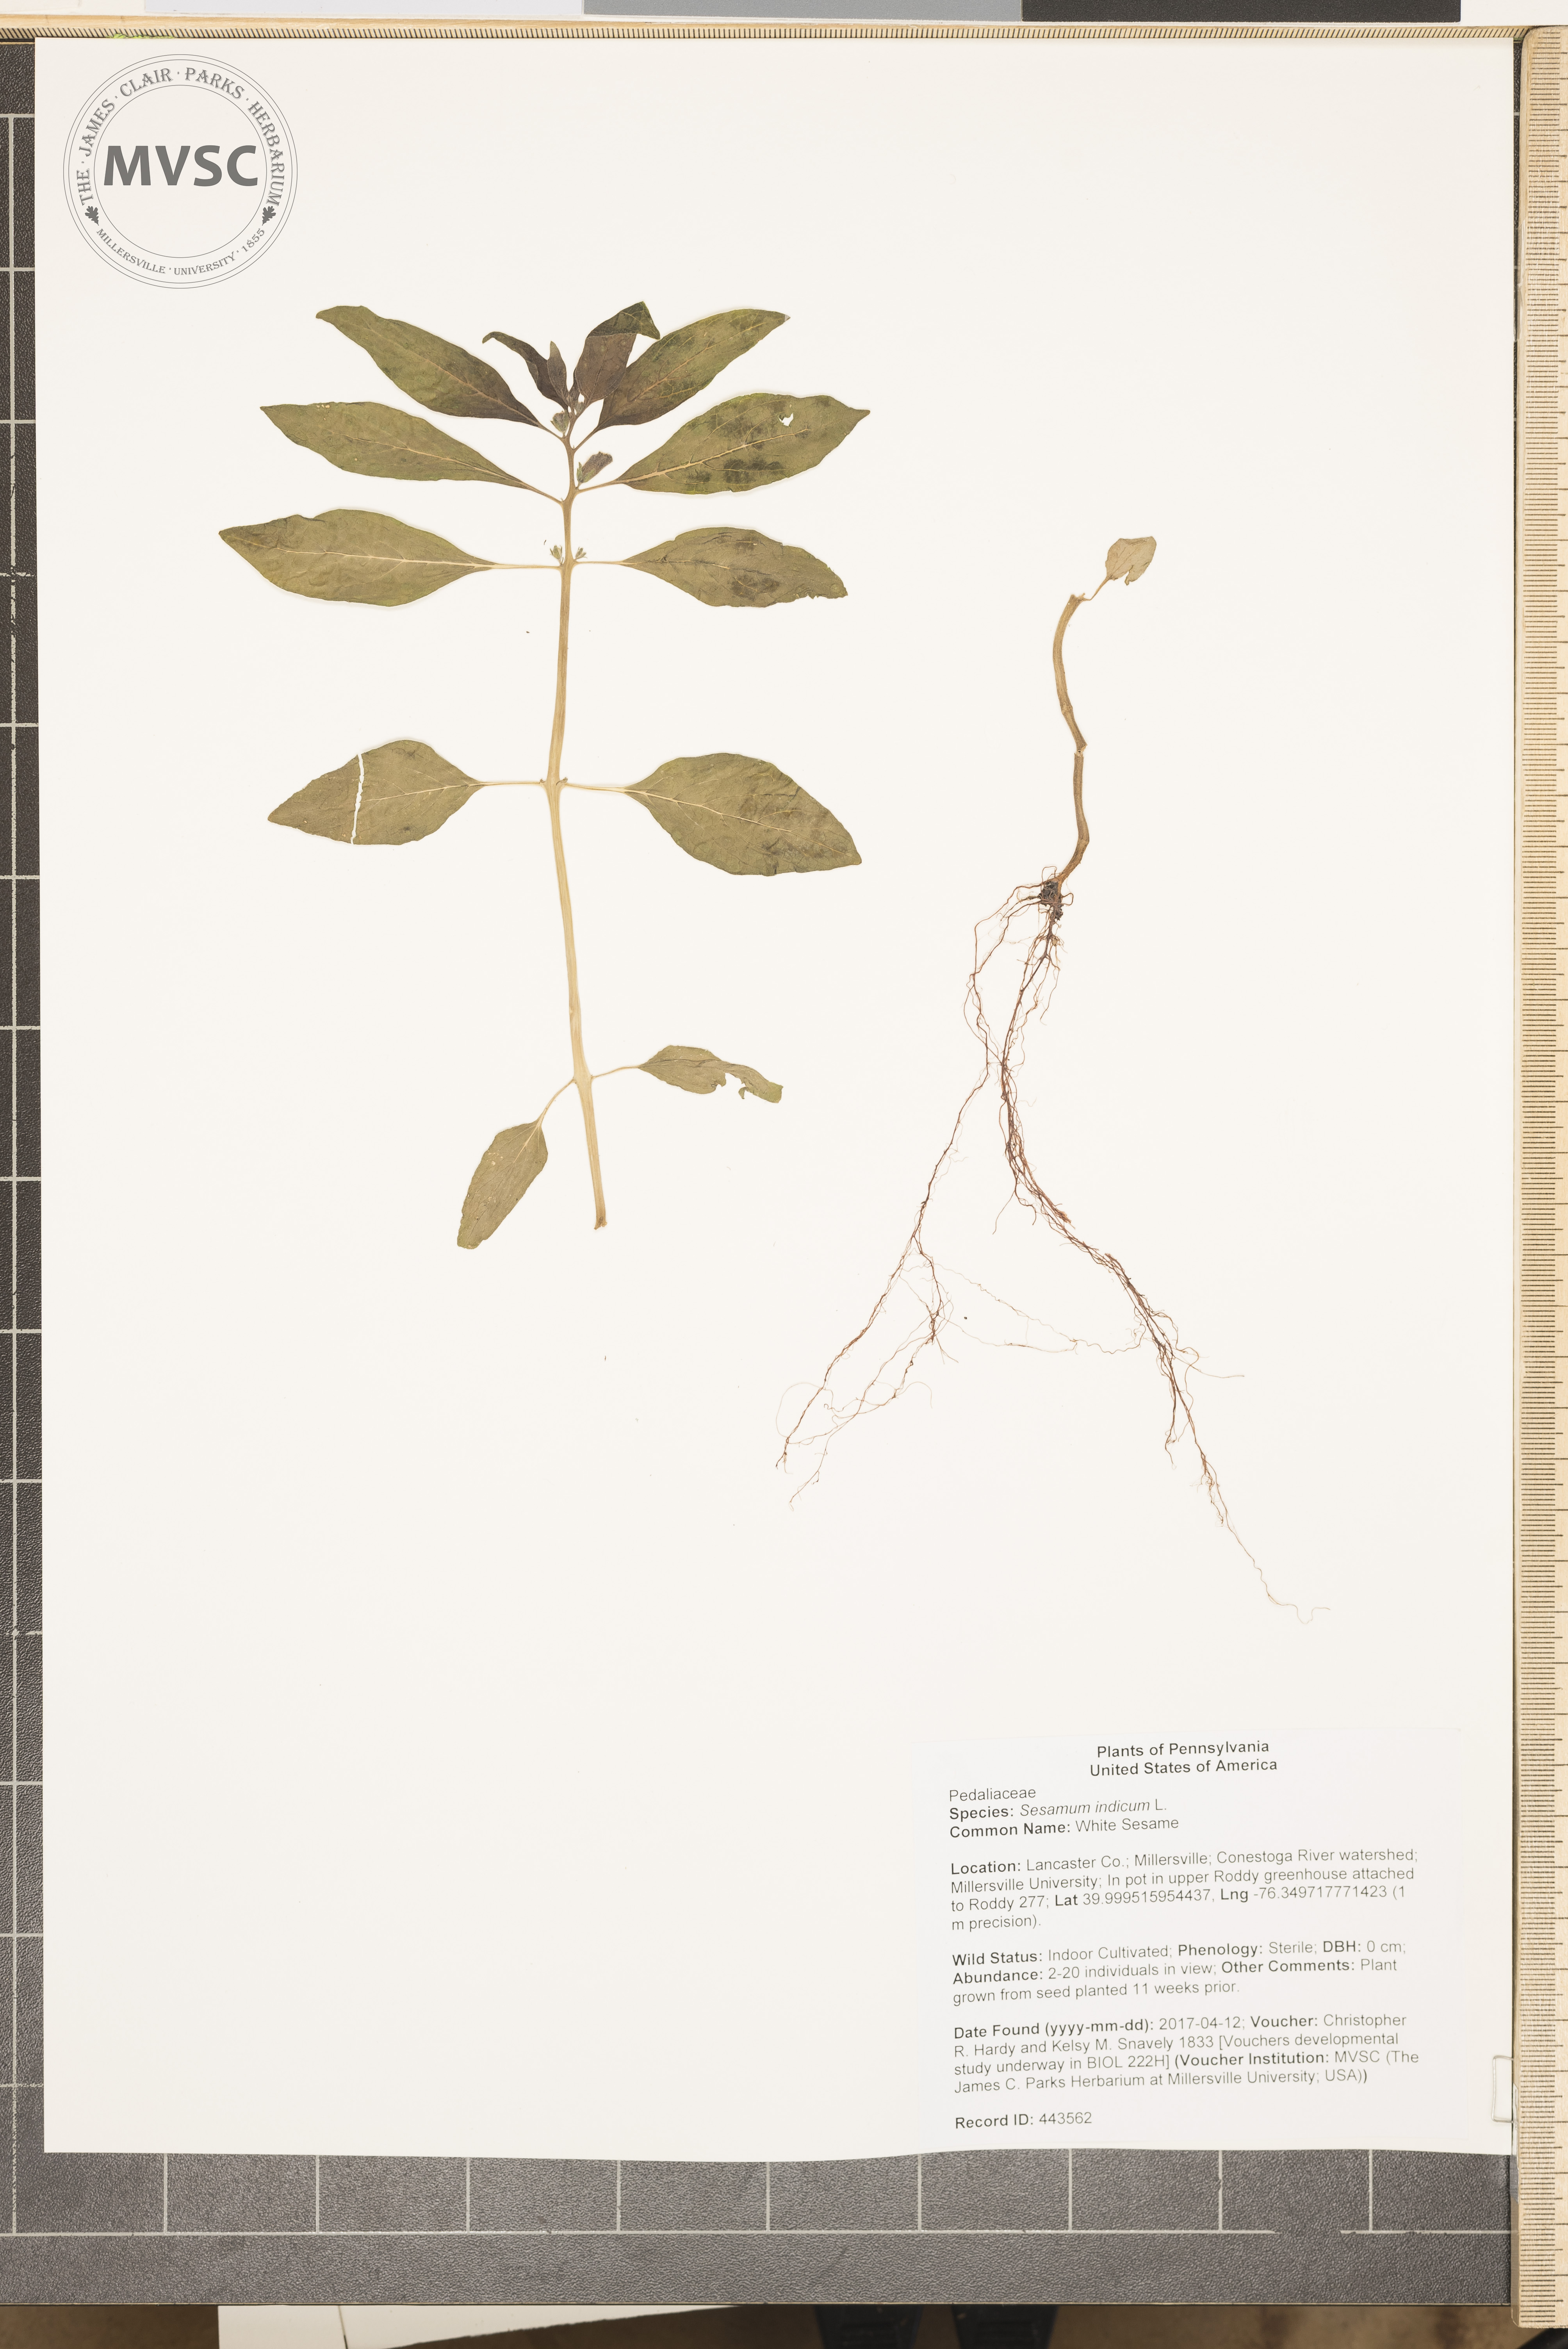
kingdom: Plantae
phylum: Tracheophyta
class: Magnoliopsida
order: Lamiales
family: Pedaliaceae
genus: Sesamum
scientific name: Sesamum indicum
